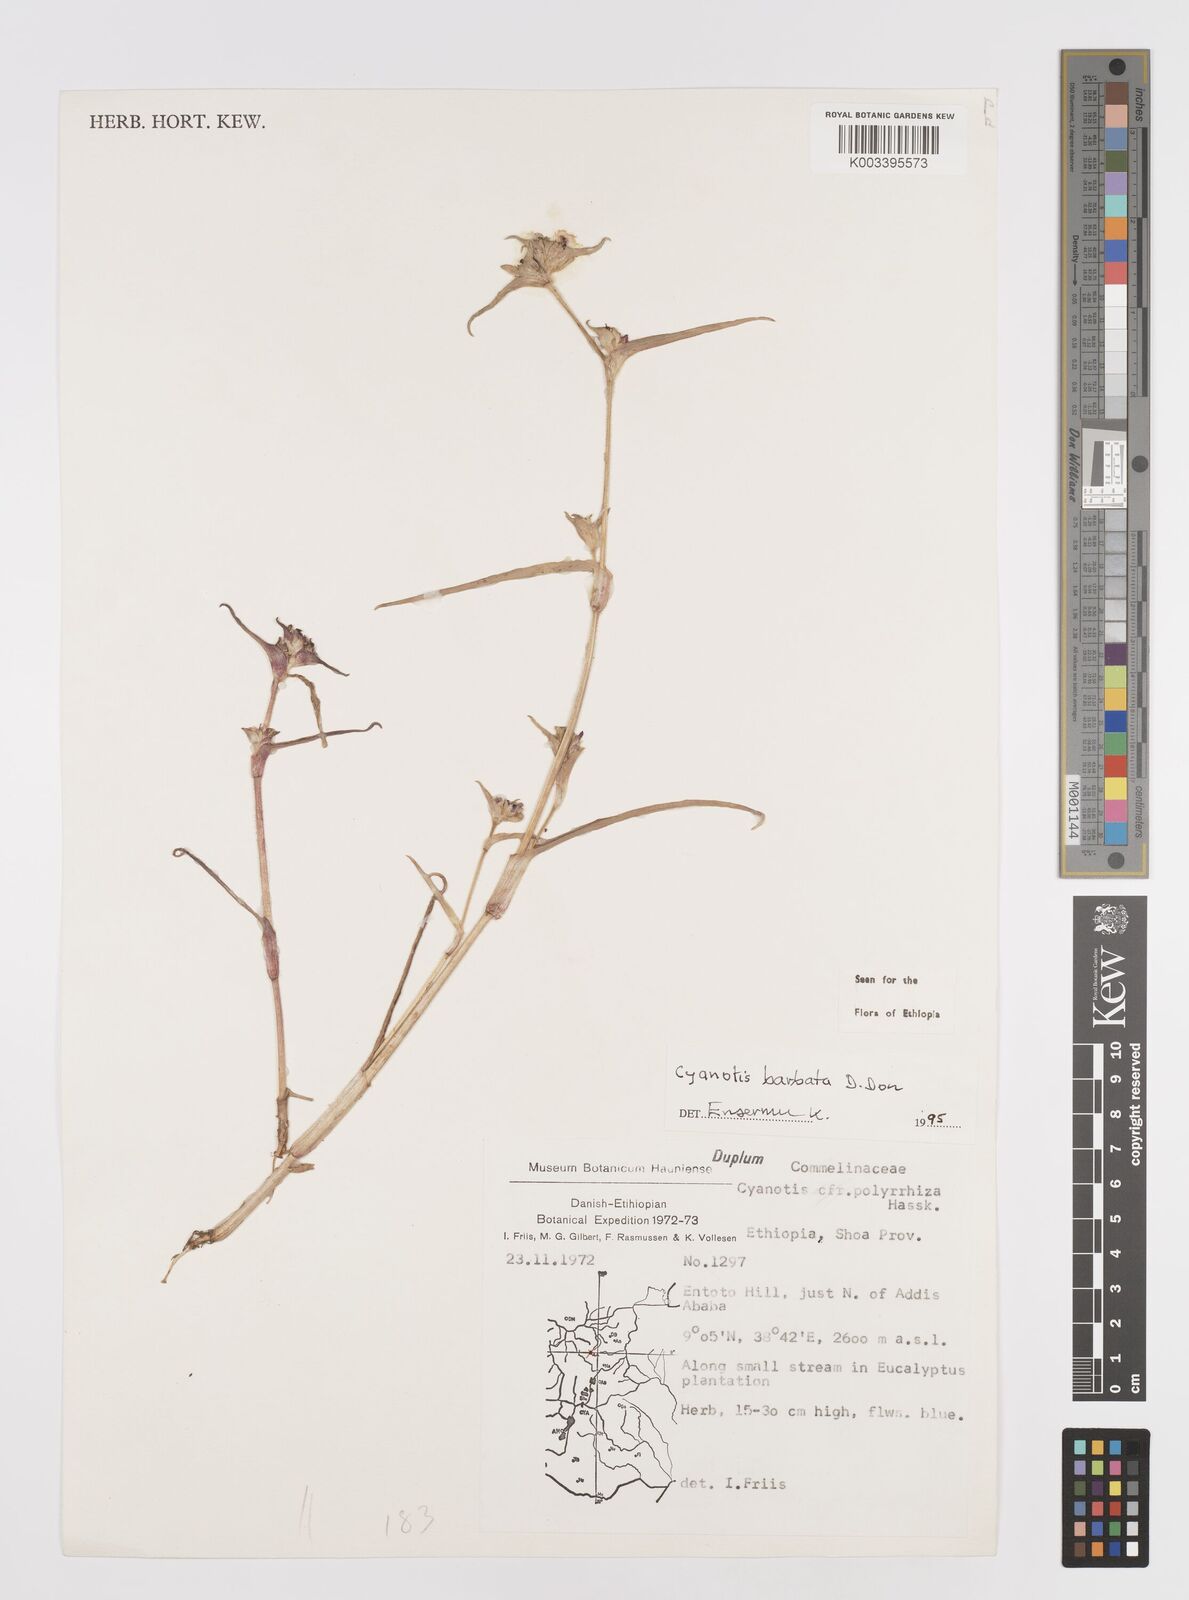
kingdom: Plantae
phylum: Tracheophyta
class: Liliopsida
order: Commelinales
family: Commelinaceae
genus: Cyanotis
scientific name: Cyanotis vaga
